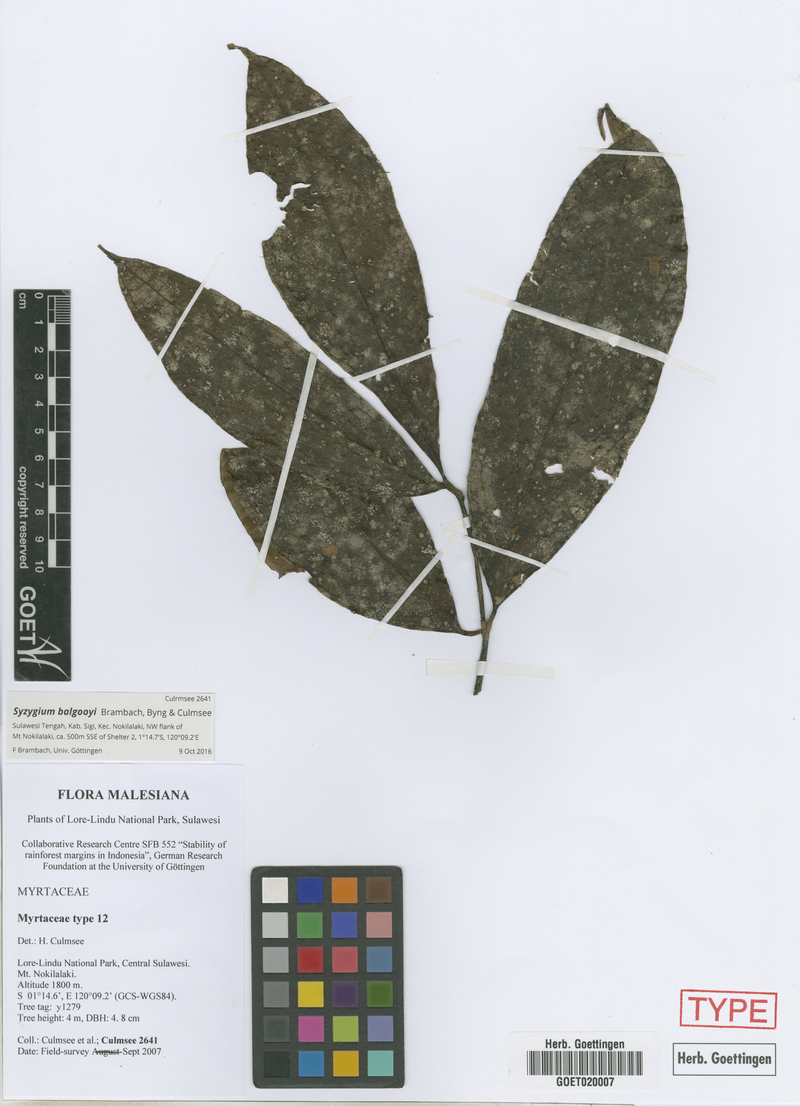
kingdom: Plantae
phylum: Tracheophyta
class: Magnoliopsida
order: Myrtales
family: Myrtaceae
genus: Syzygium
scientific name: Syzygium balgooyi
